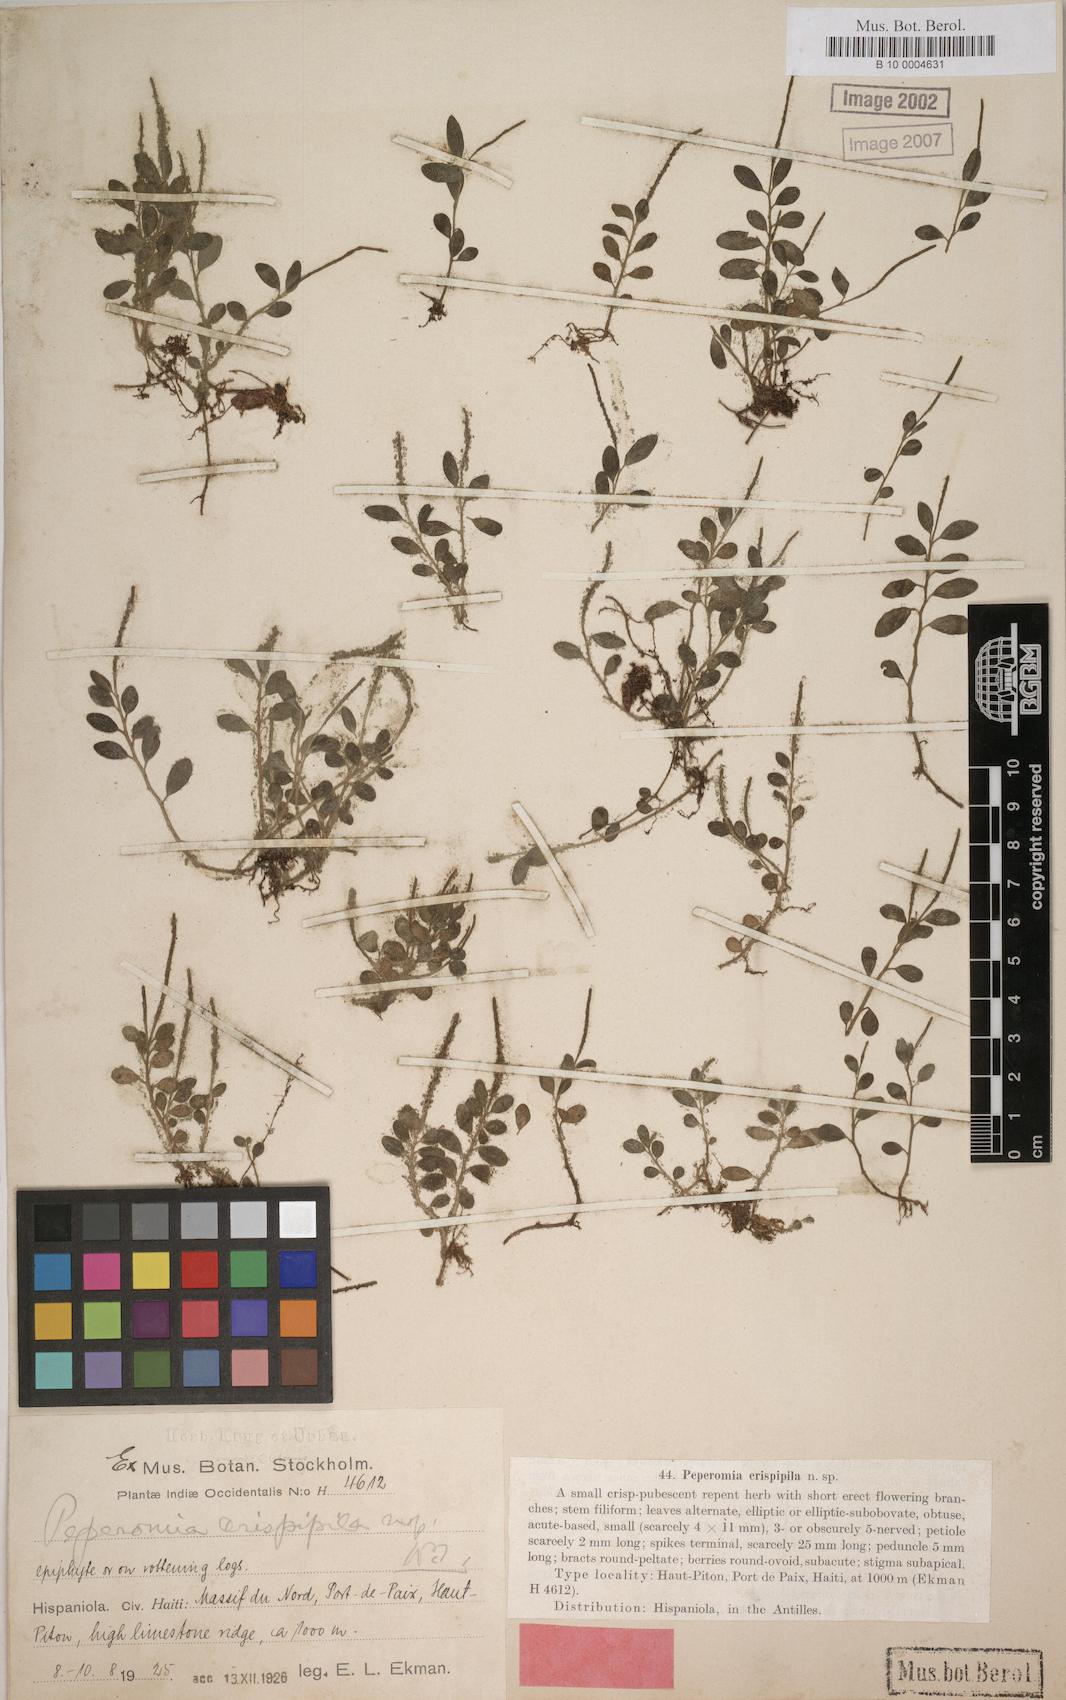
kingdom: Plantae
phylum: Tracheophyta
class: Magnoliopsida
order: Piperales
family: Piperaceae
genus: Peperomia
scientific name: Peperomia cogniauxii
